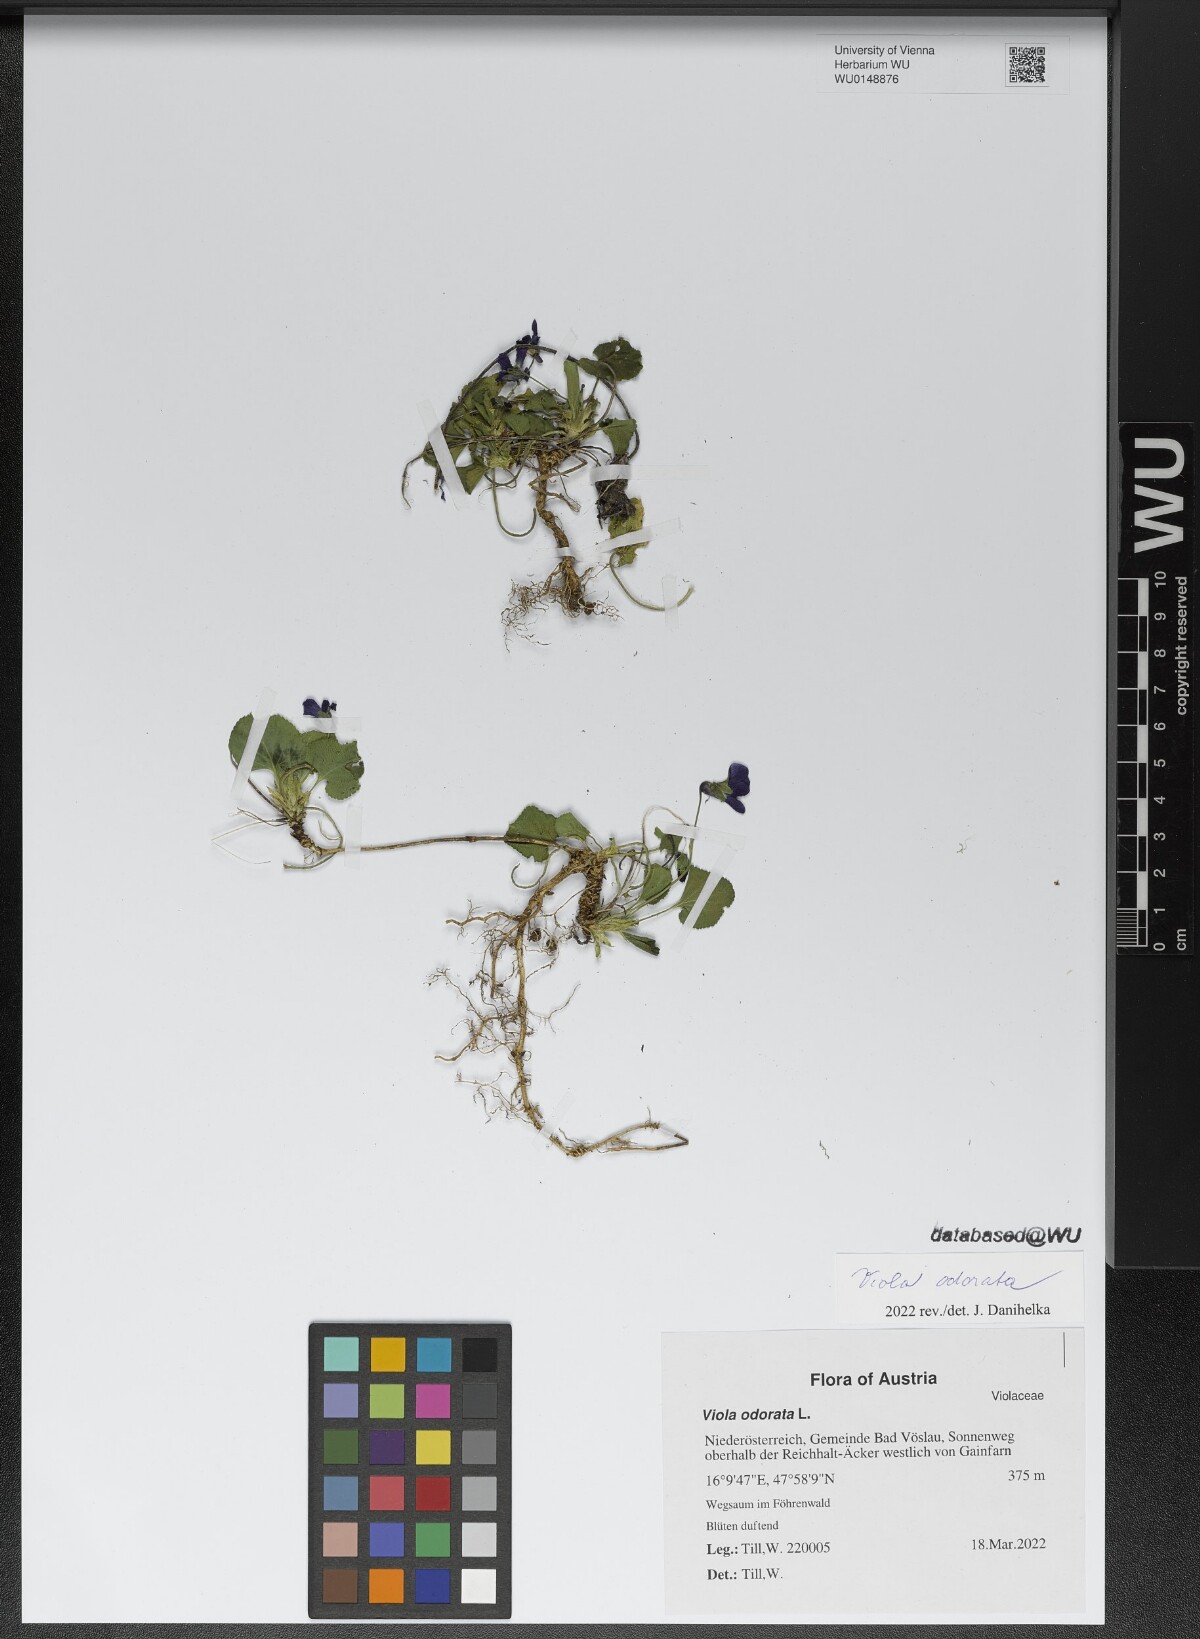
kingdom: Plantae
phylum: Tracheophyta
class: Magnoliopsida
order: Malpighiales
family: Violaceae
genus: Viola
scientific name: Viola odorata
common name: Sweet violet
